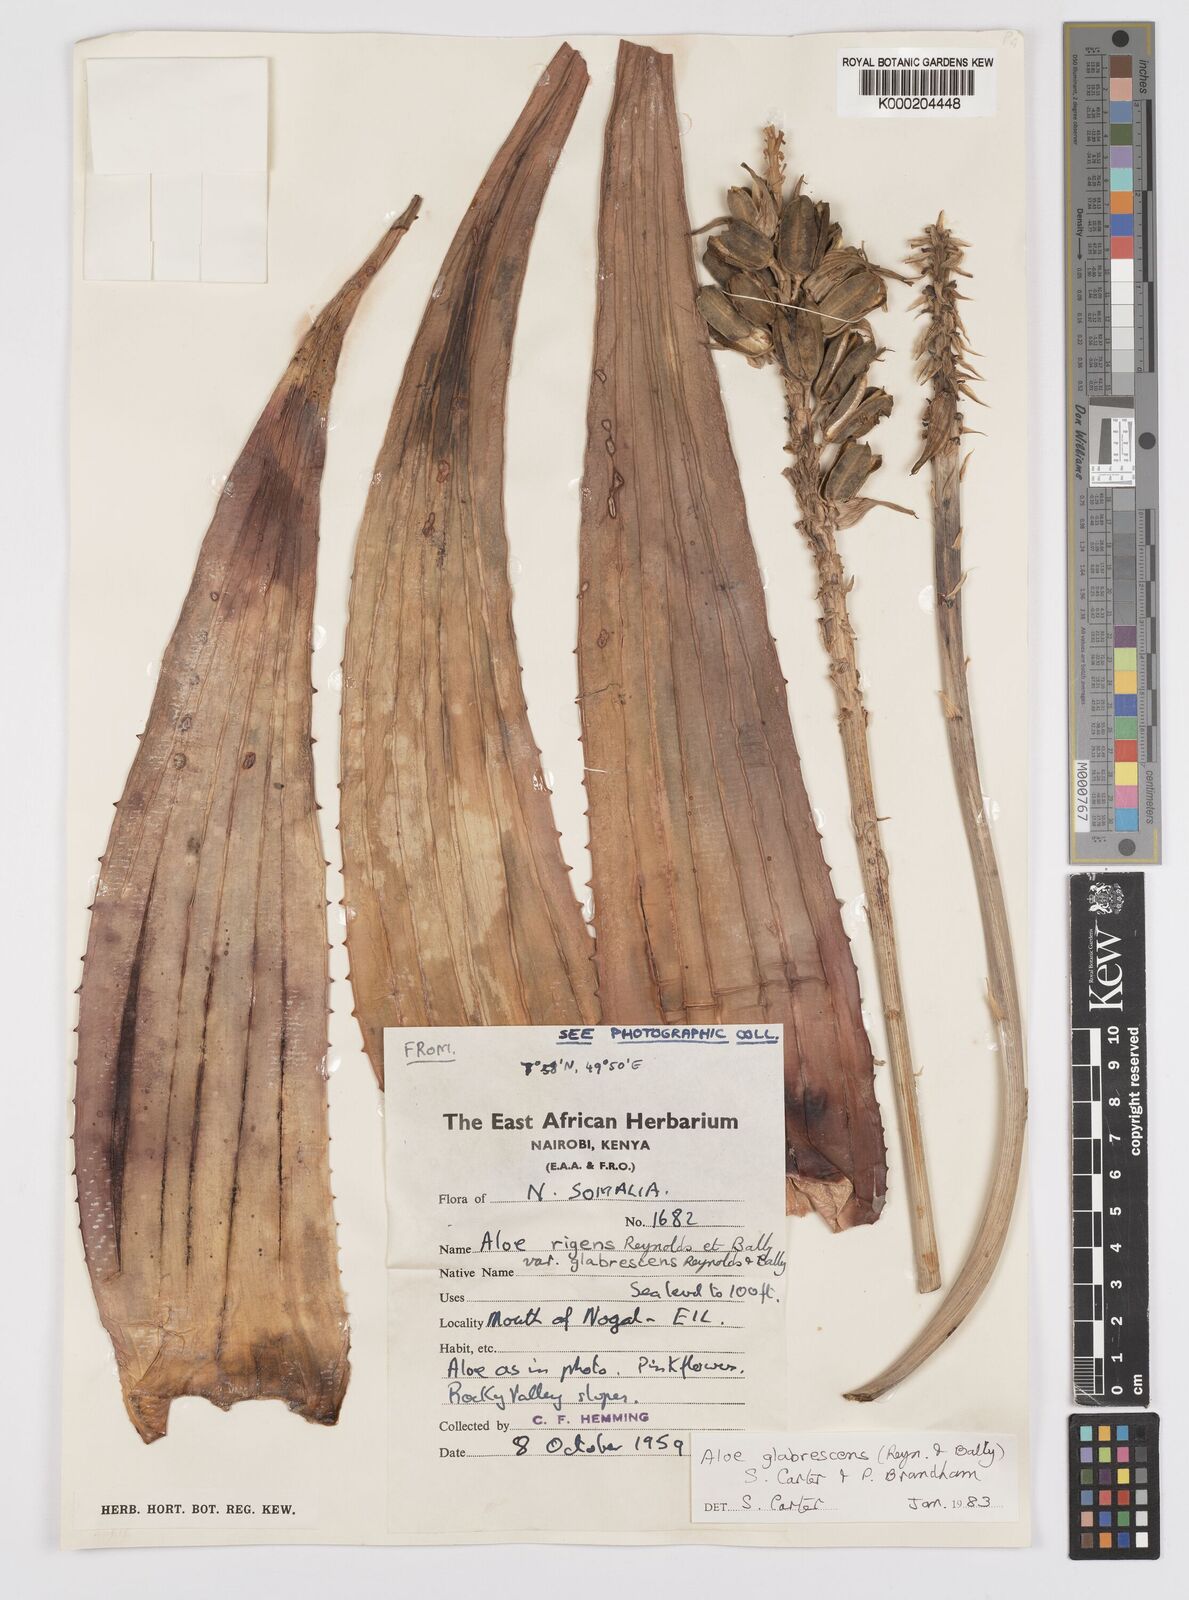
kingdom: Plantae
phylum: Tracheophyta
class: Liliopsida
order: Asparagales
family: Asphodelaceae
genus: Aloe
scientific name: Aloe glabrescens
